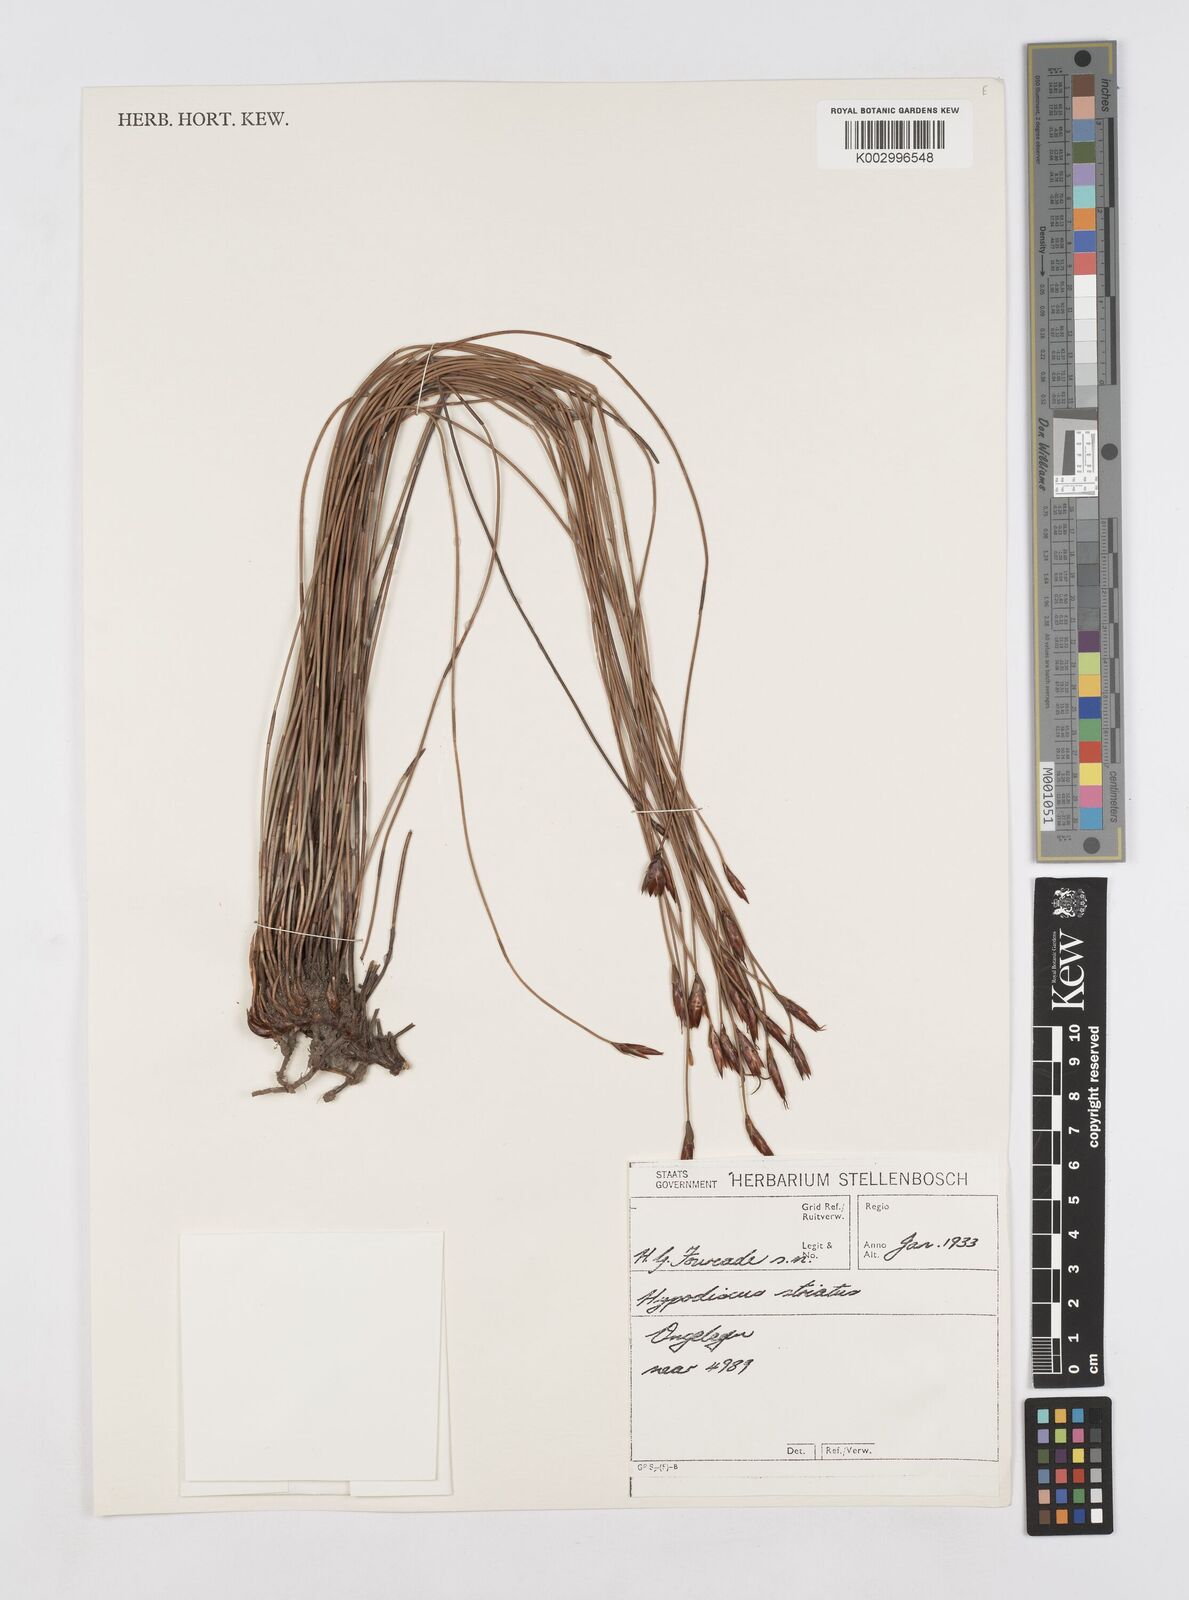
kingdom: Plantae
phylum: Tracheophyta
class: Liliopsida
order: Poales
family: Restionaceae
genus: Hypodiscus
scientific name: Hypodiscus striatus
